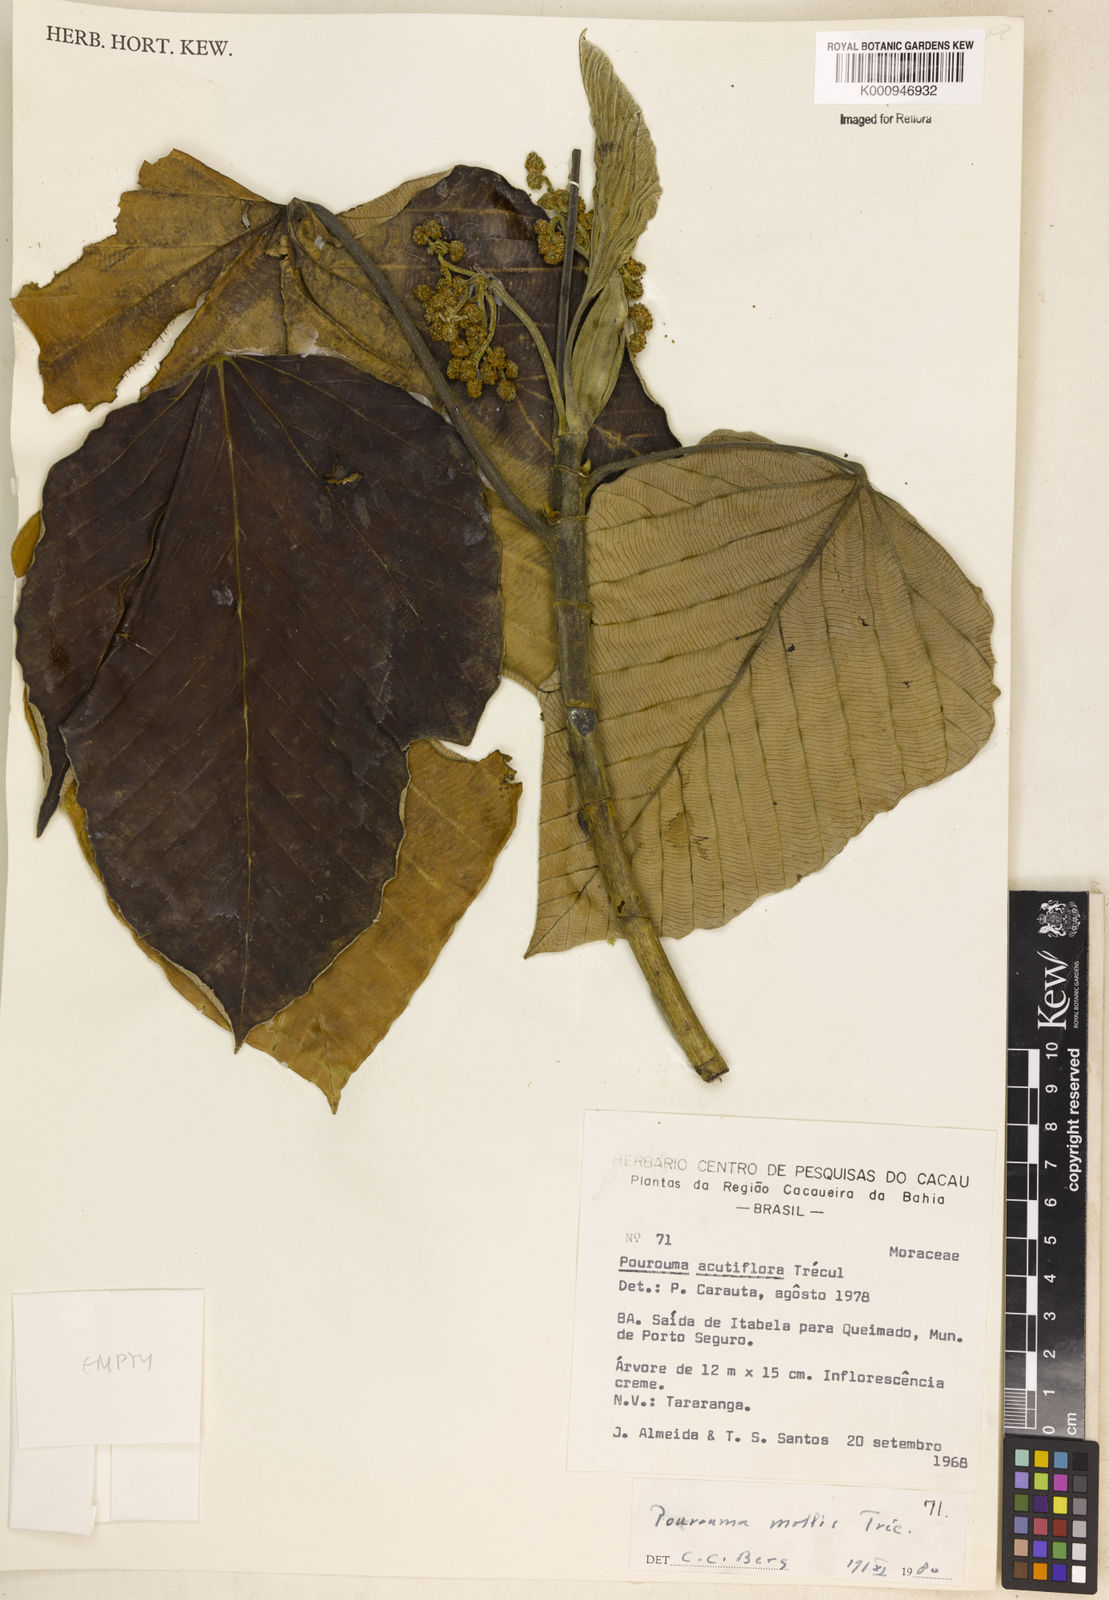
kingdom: Plantae
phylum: Tracheophyta
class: Magnoliopsida
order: Rosales
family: Urticaceae
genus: Pourouma
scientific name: Pourouma
